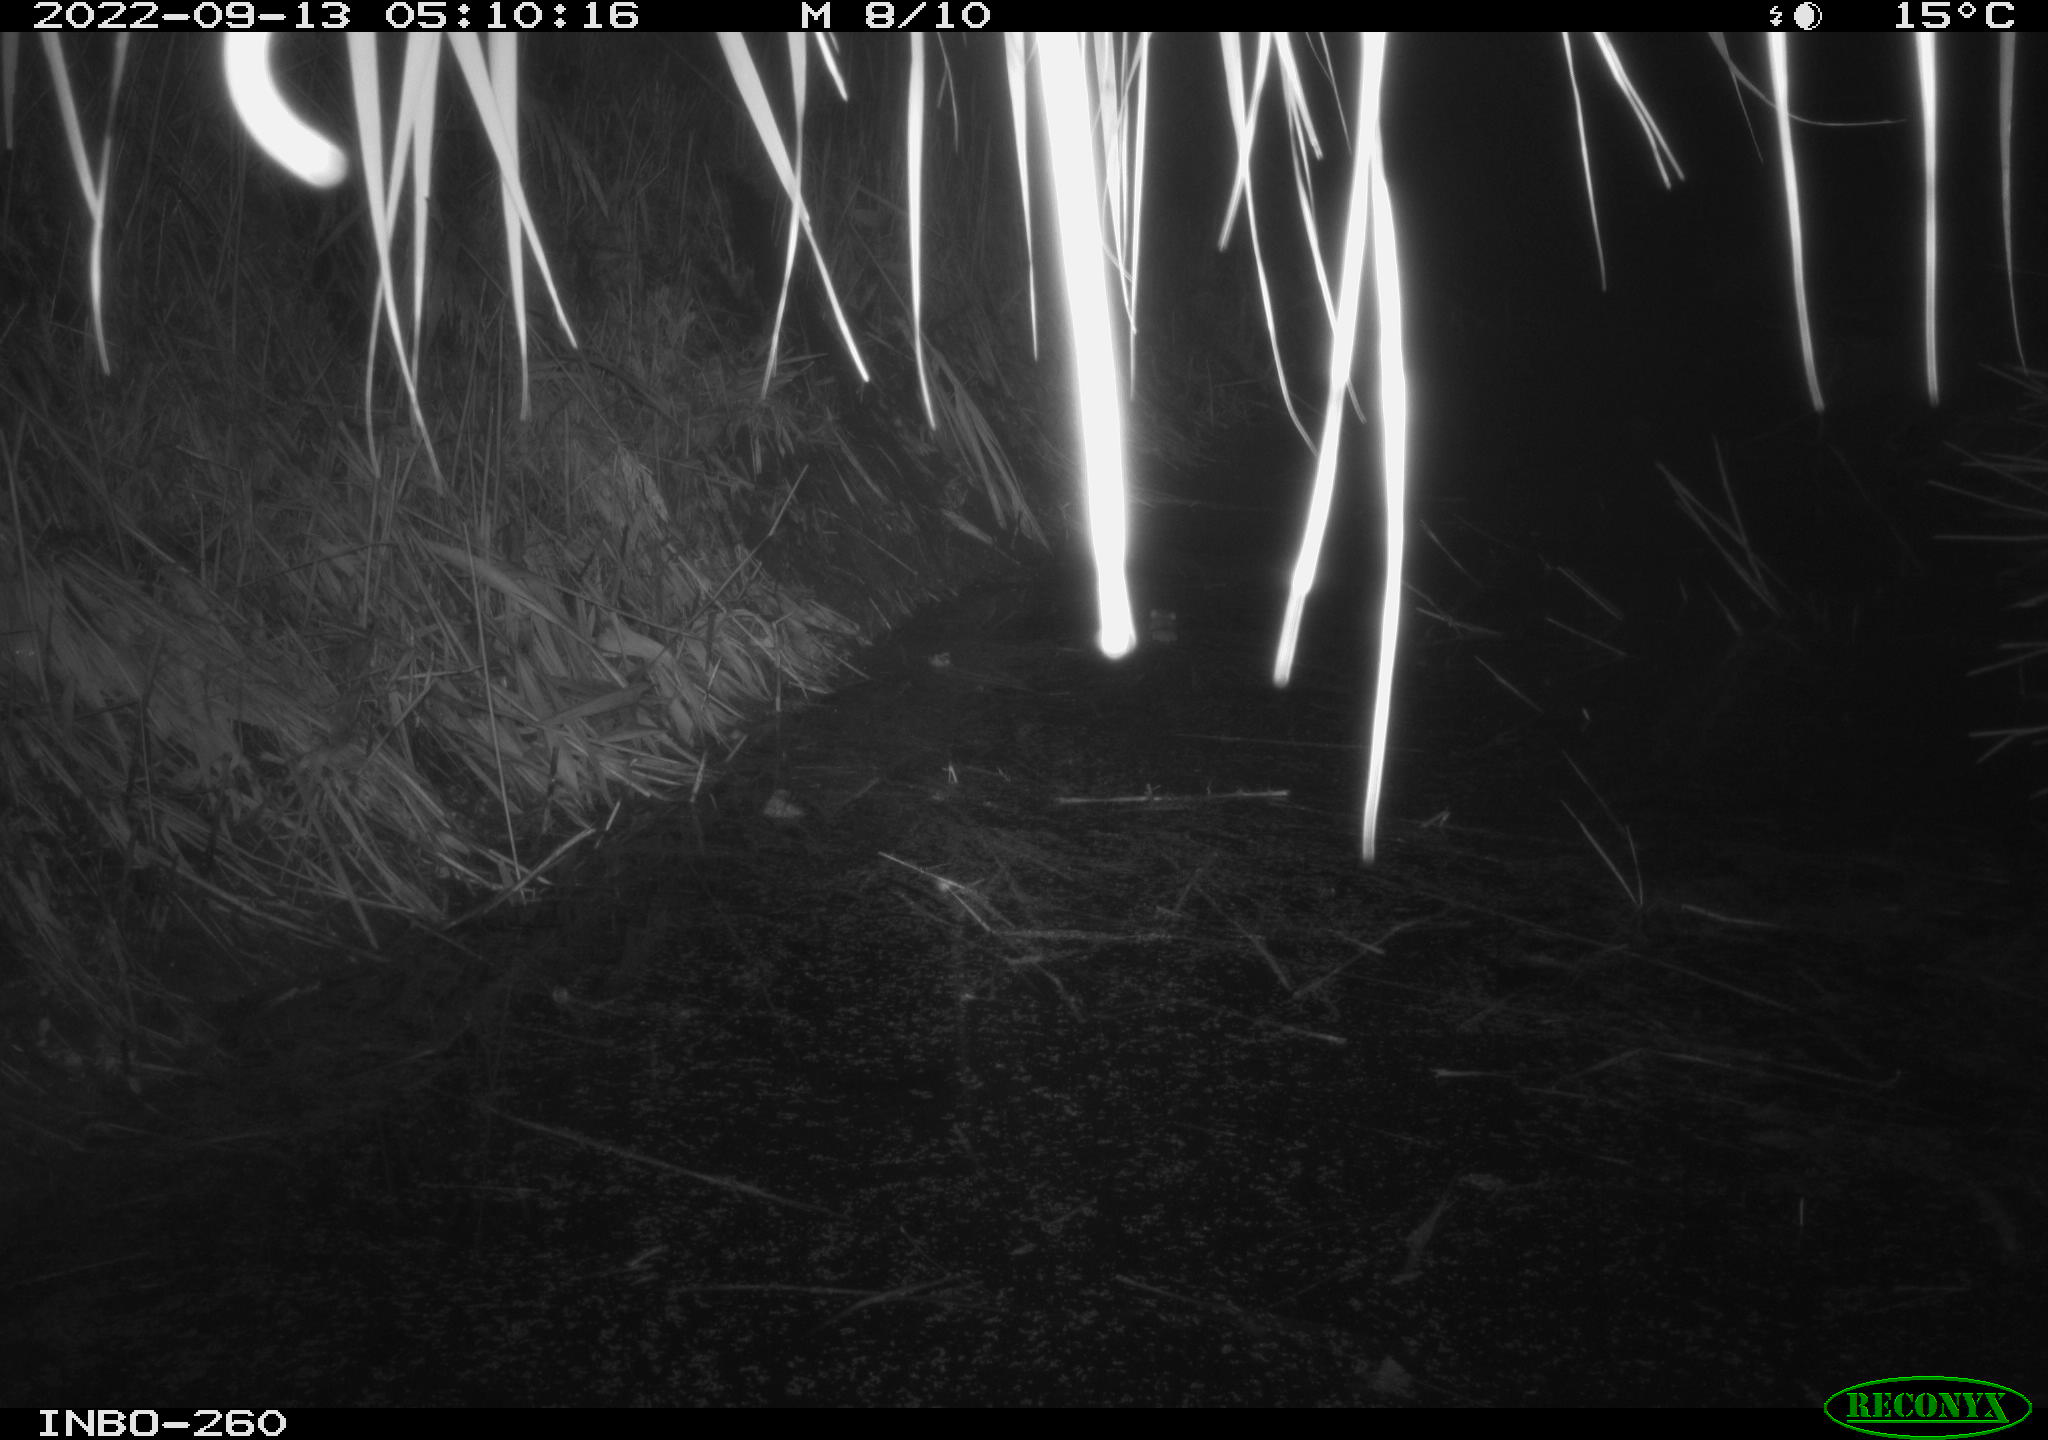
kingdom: Animalia
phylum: Chordata
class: Mammalia
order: Rodentia
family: Muridae
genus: Rattus
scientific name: Rattus norvegicus
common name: Brown rat
